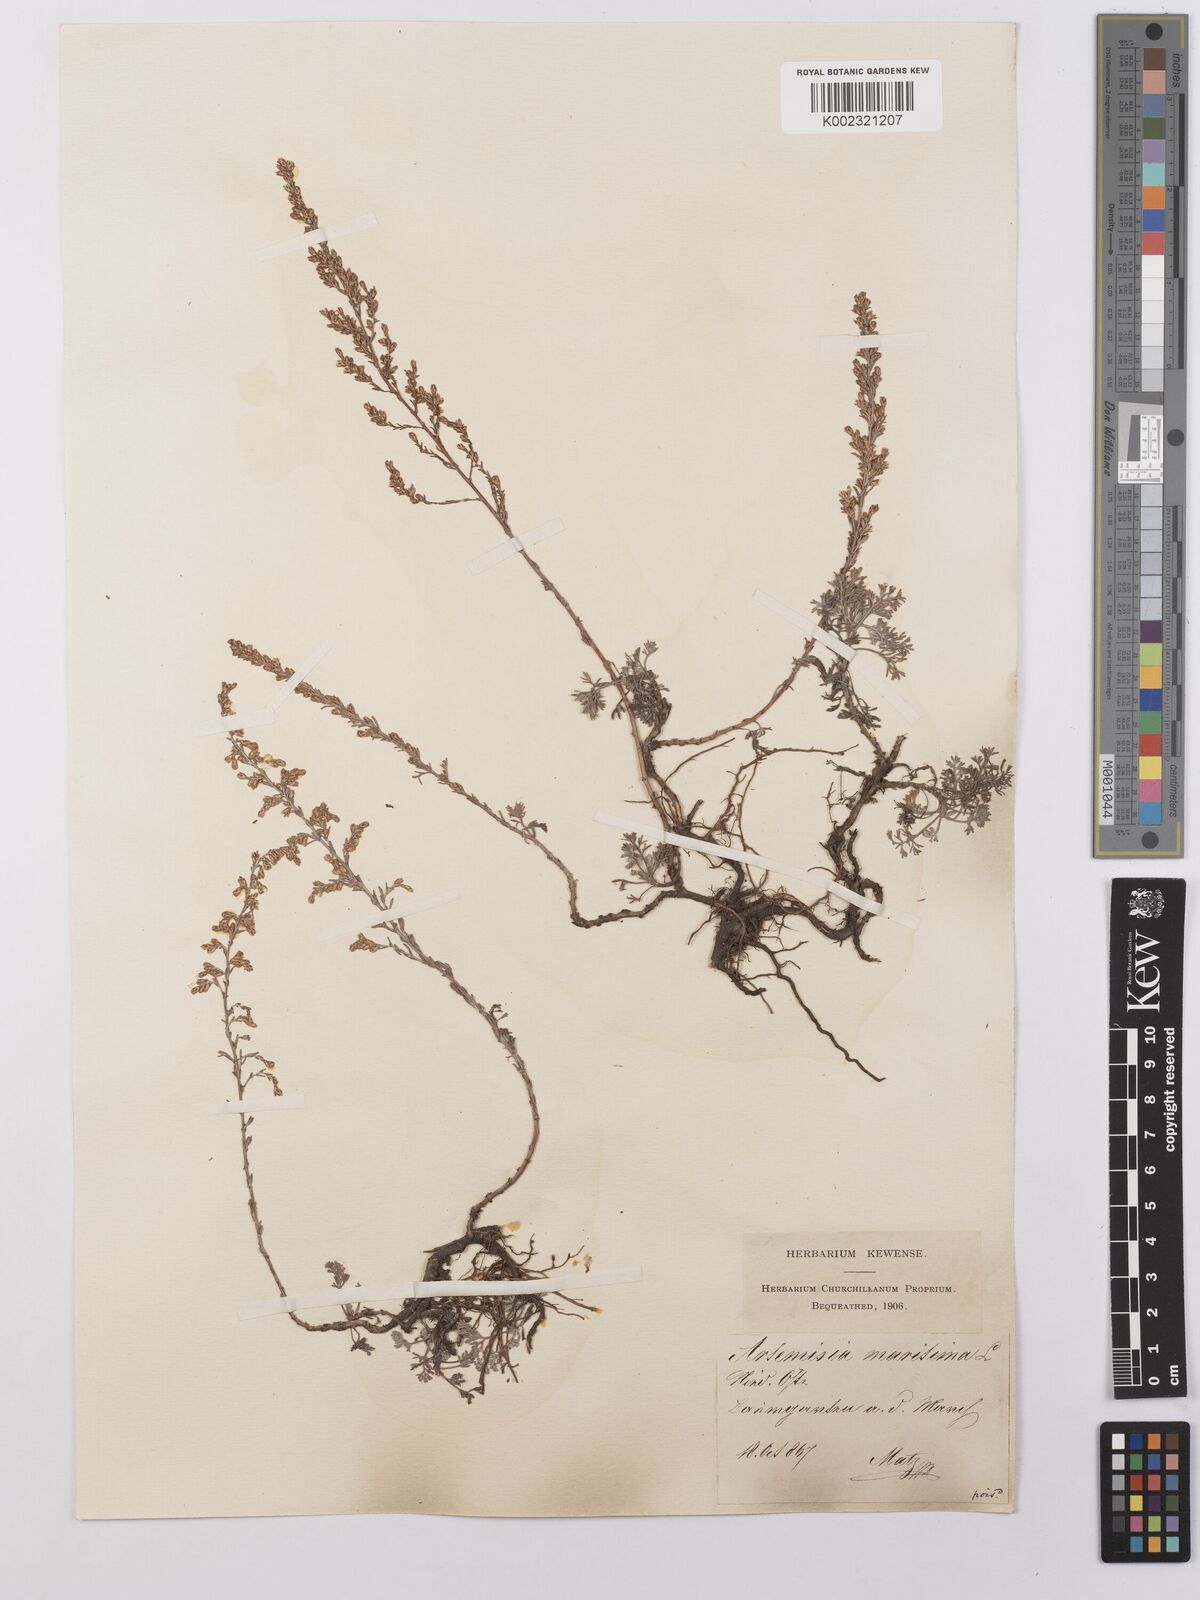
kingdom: Plantae
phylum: Tracheophyta
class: Magnoliopsida
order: Asterales
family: Asteraceae
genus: Artemisia
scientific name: Artemisia maritima
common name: Wormseed
